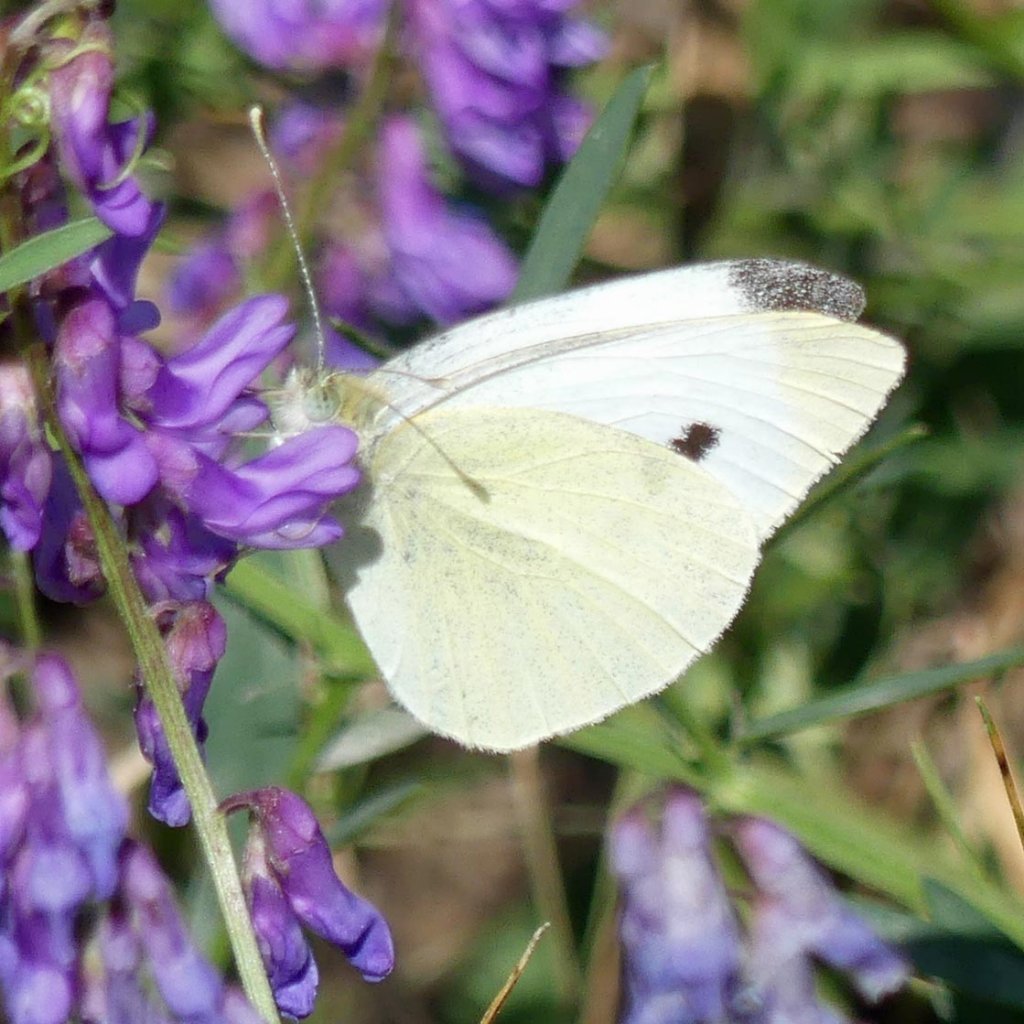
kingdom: Animalia
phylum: Arthropoda
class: Insecta
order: Lepidoptera
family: Pieridae
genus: Pieris
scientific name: Pieris rapae
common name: Cabbage White
